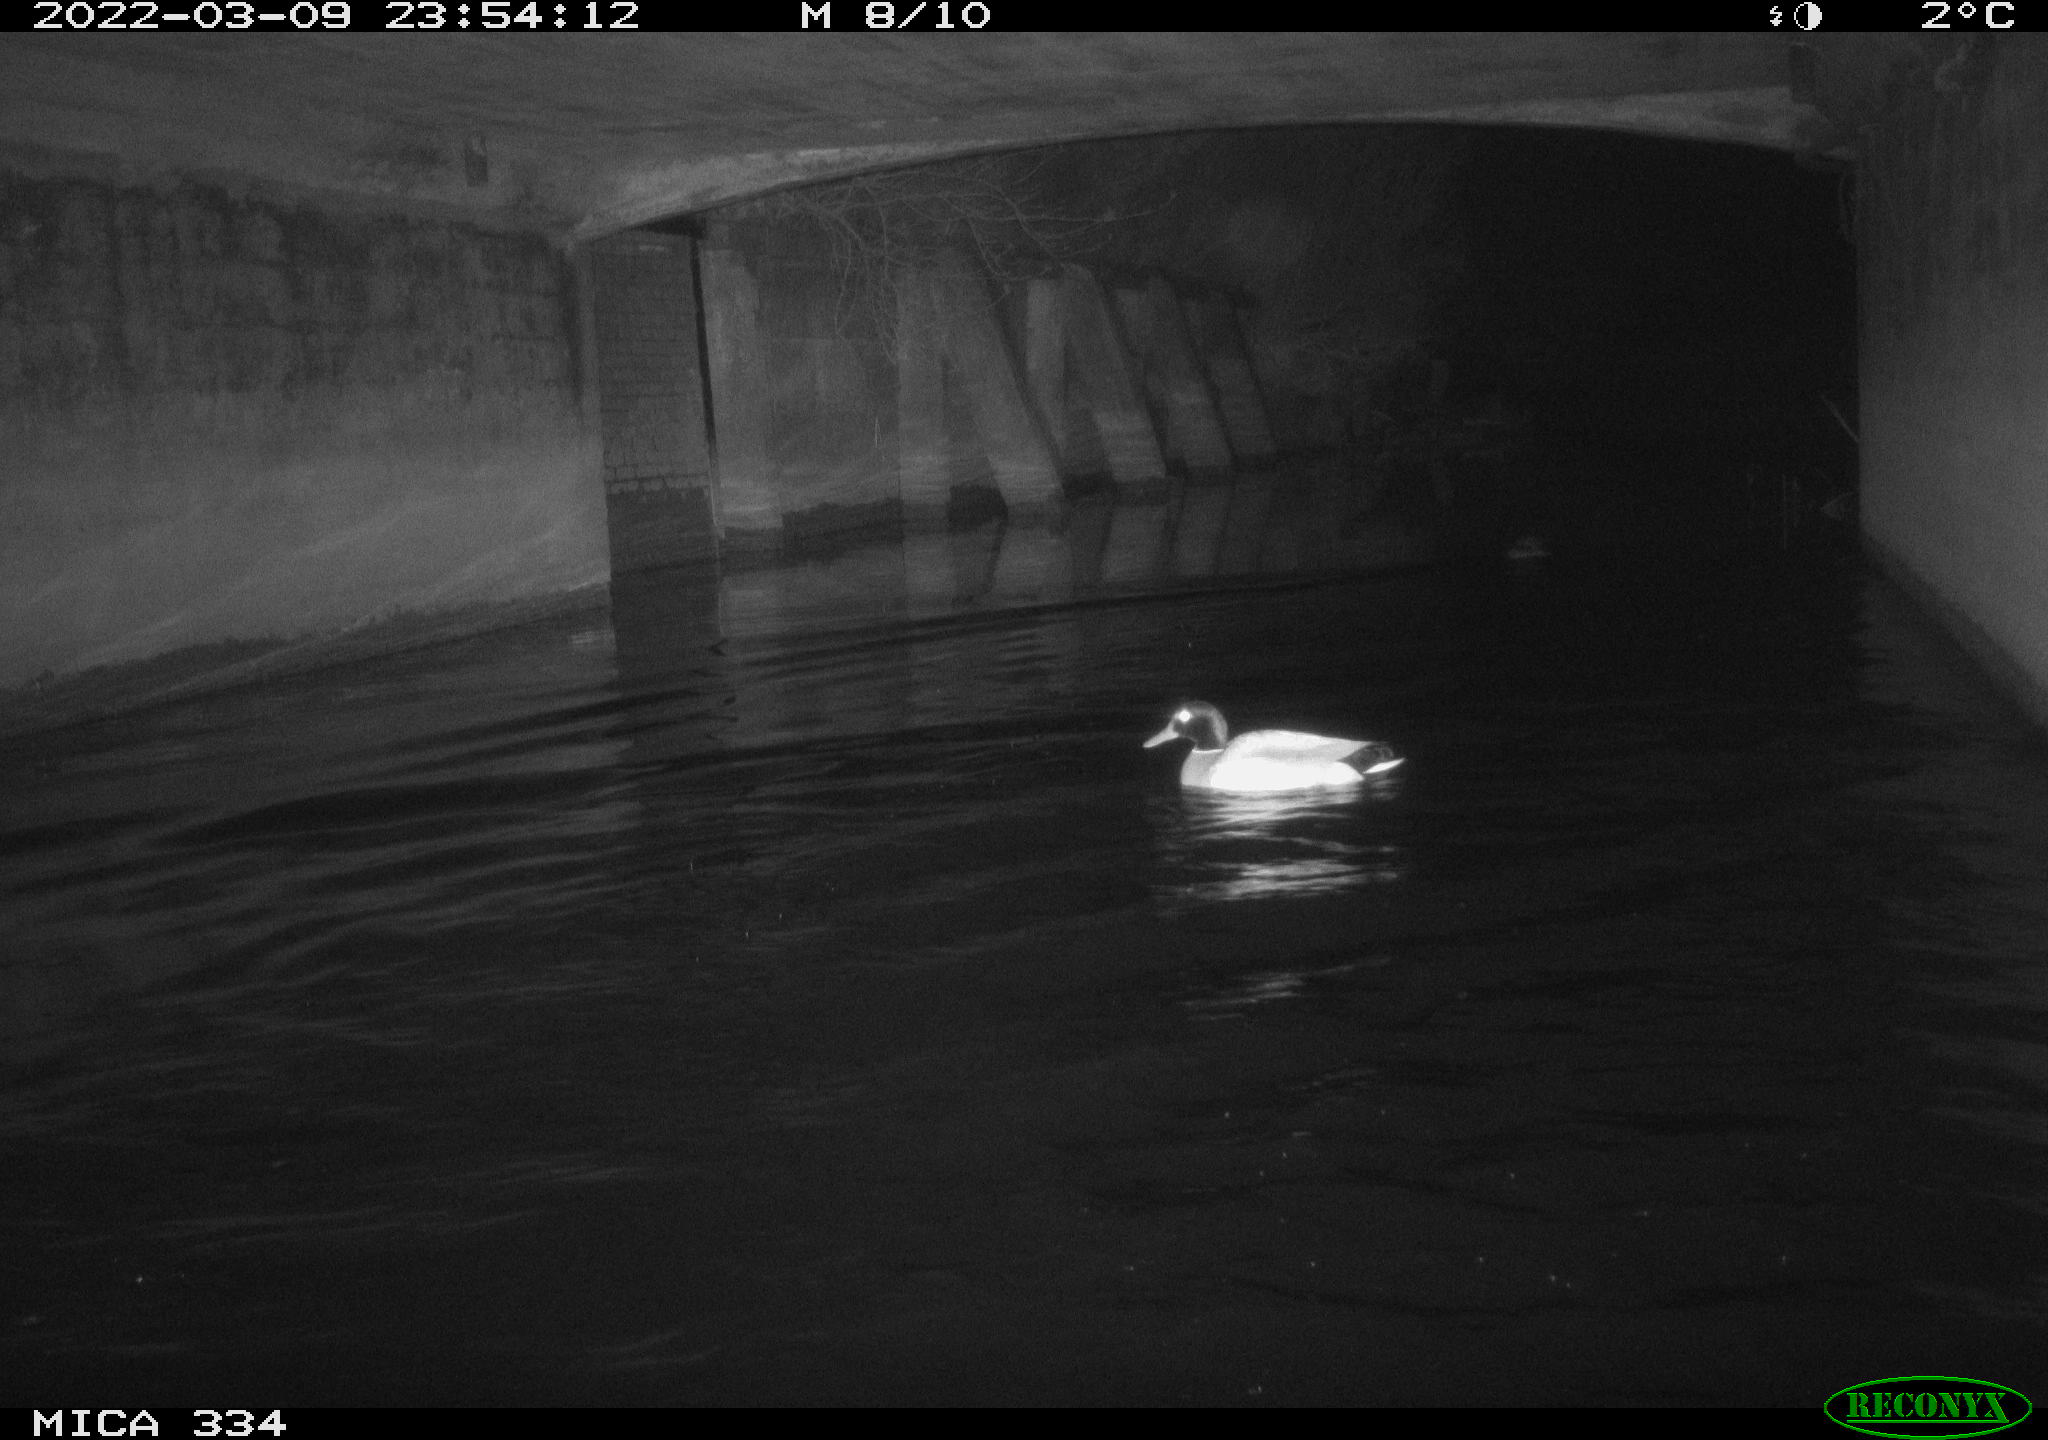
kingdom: Animalia
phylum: Chordata
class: Aves
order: Anseriformes
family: Anatidae
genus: Anas
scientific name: Anas platyrhynchos
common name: Mallard
